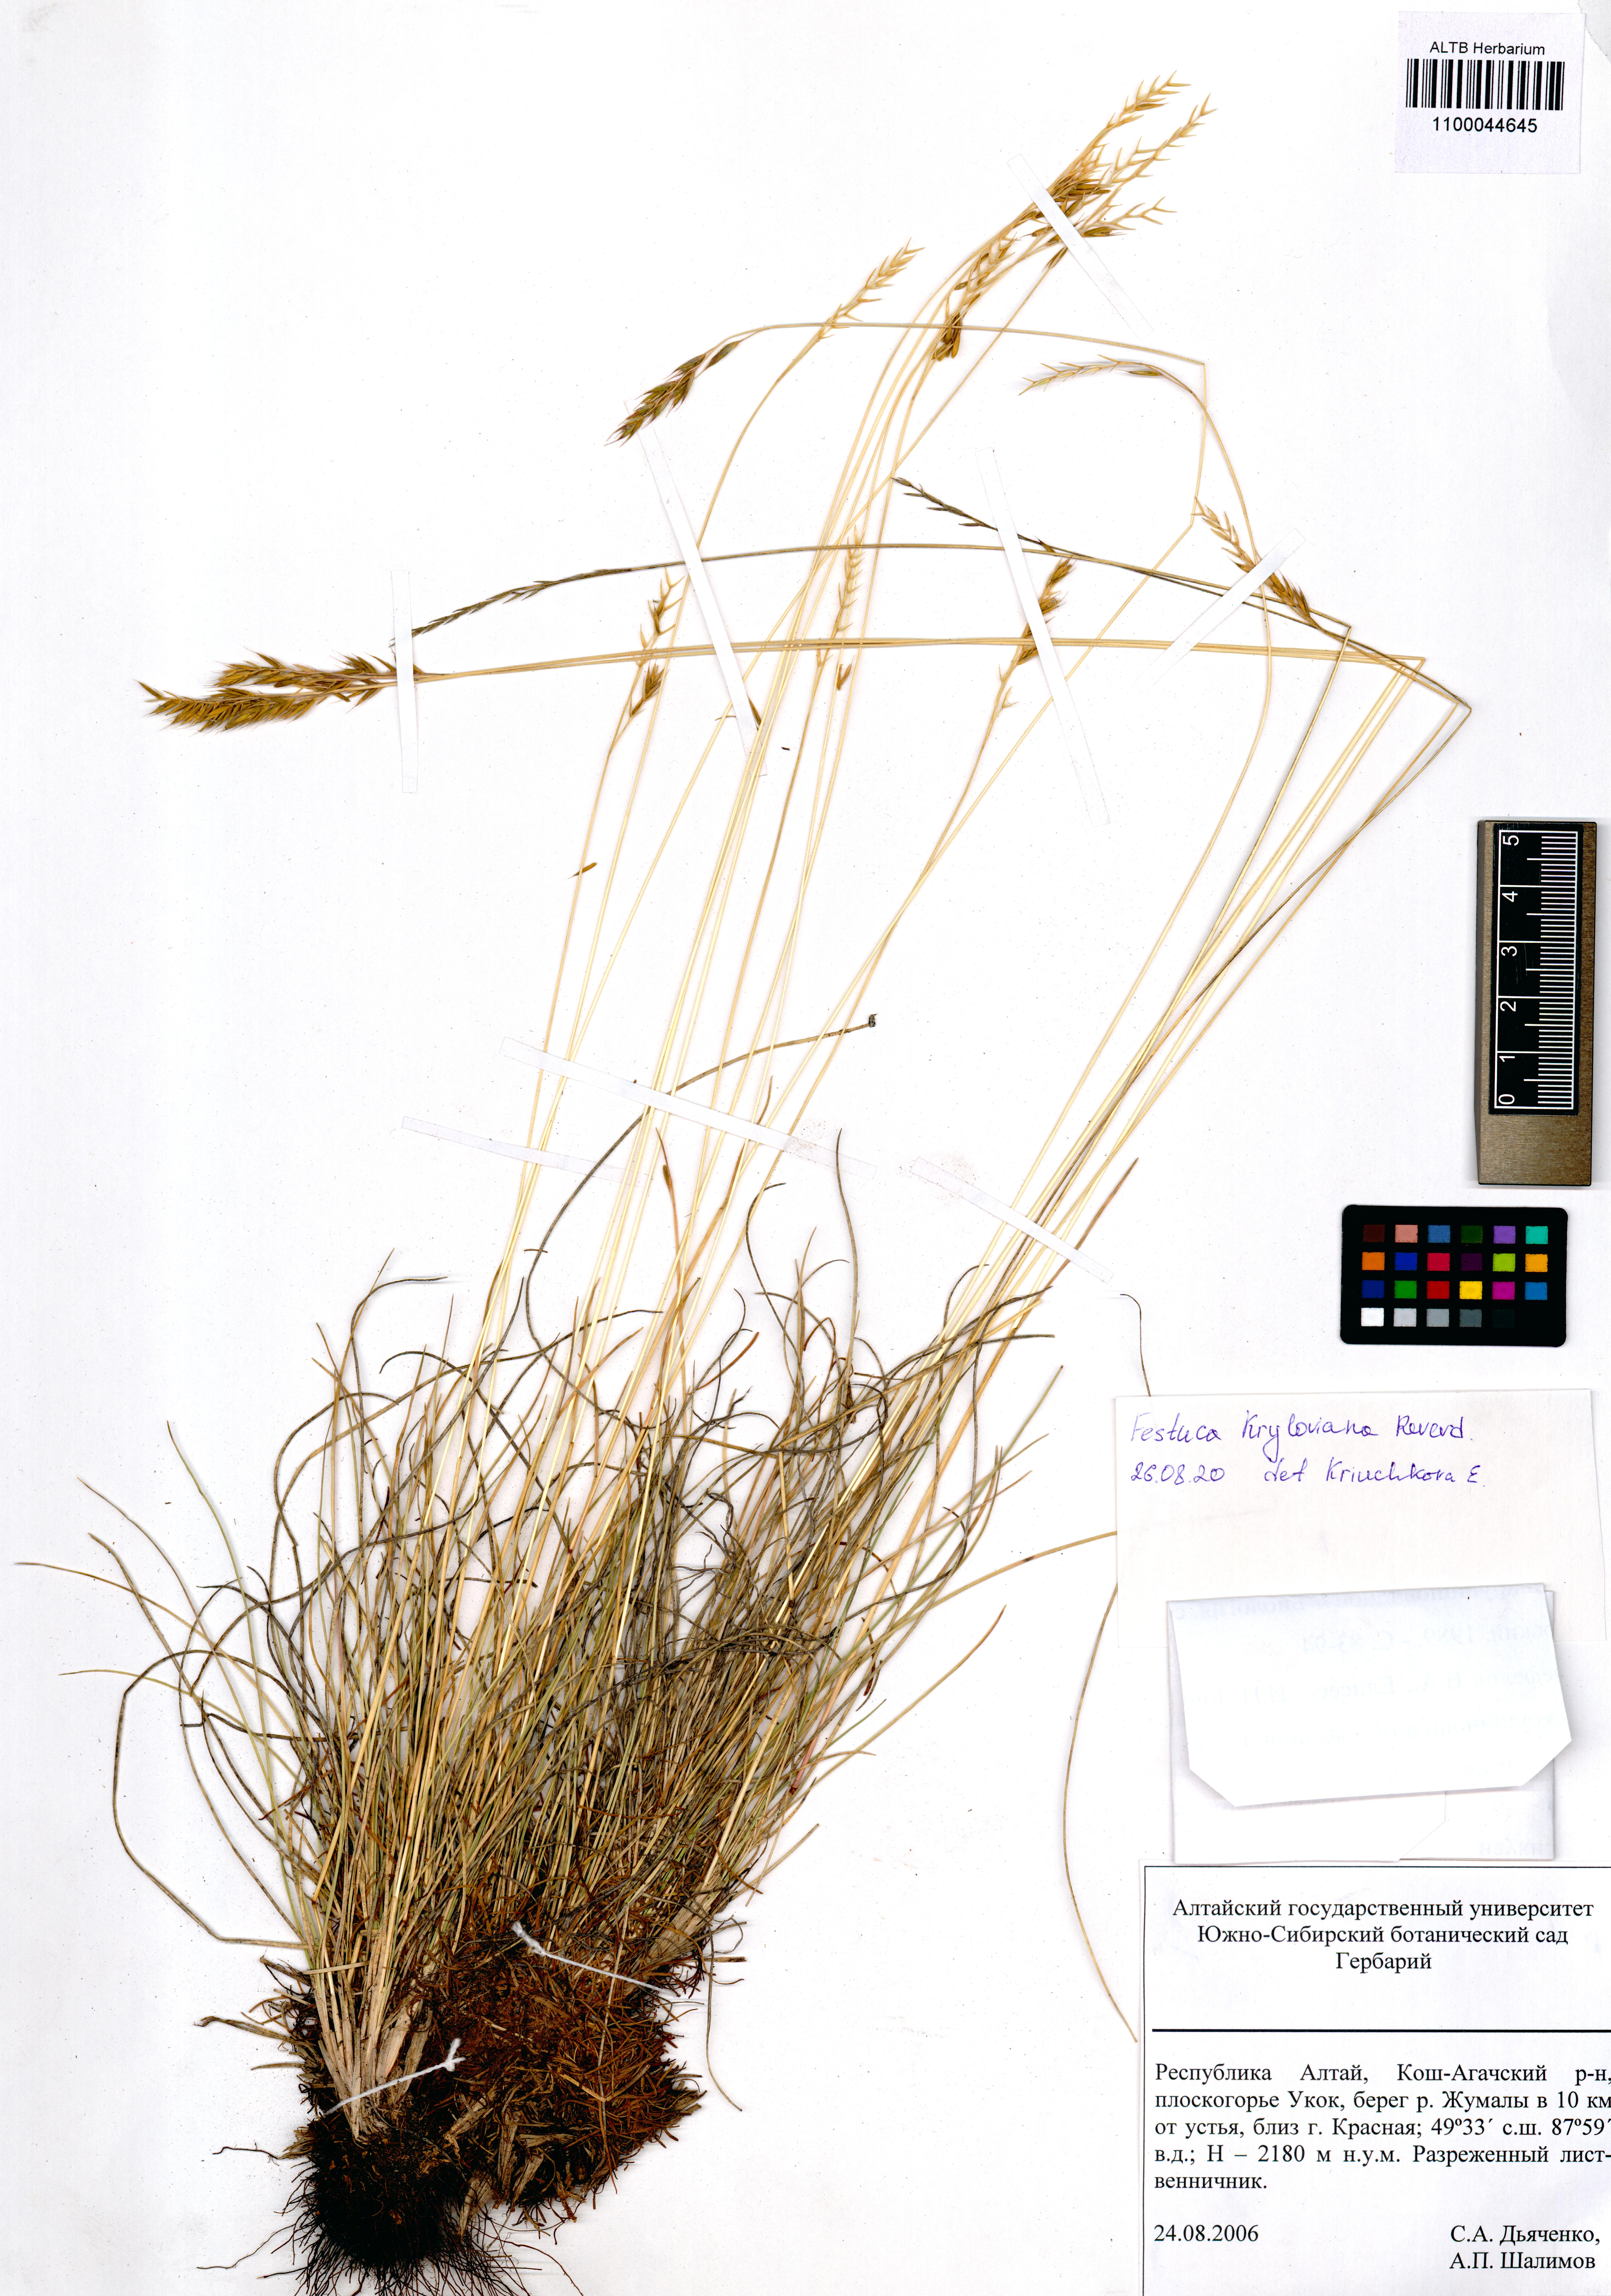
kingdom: Plantae
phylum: Tracheophyta
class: Liliopsida
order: Poales
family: Poaceae
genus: Festuca
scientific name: Festuca kryloviana
